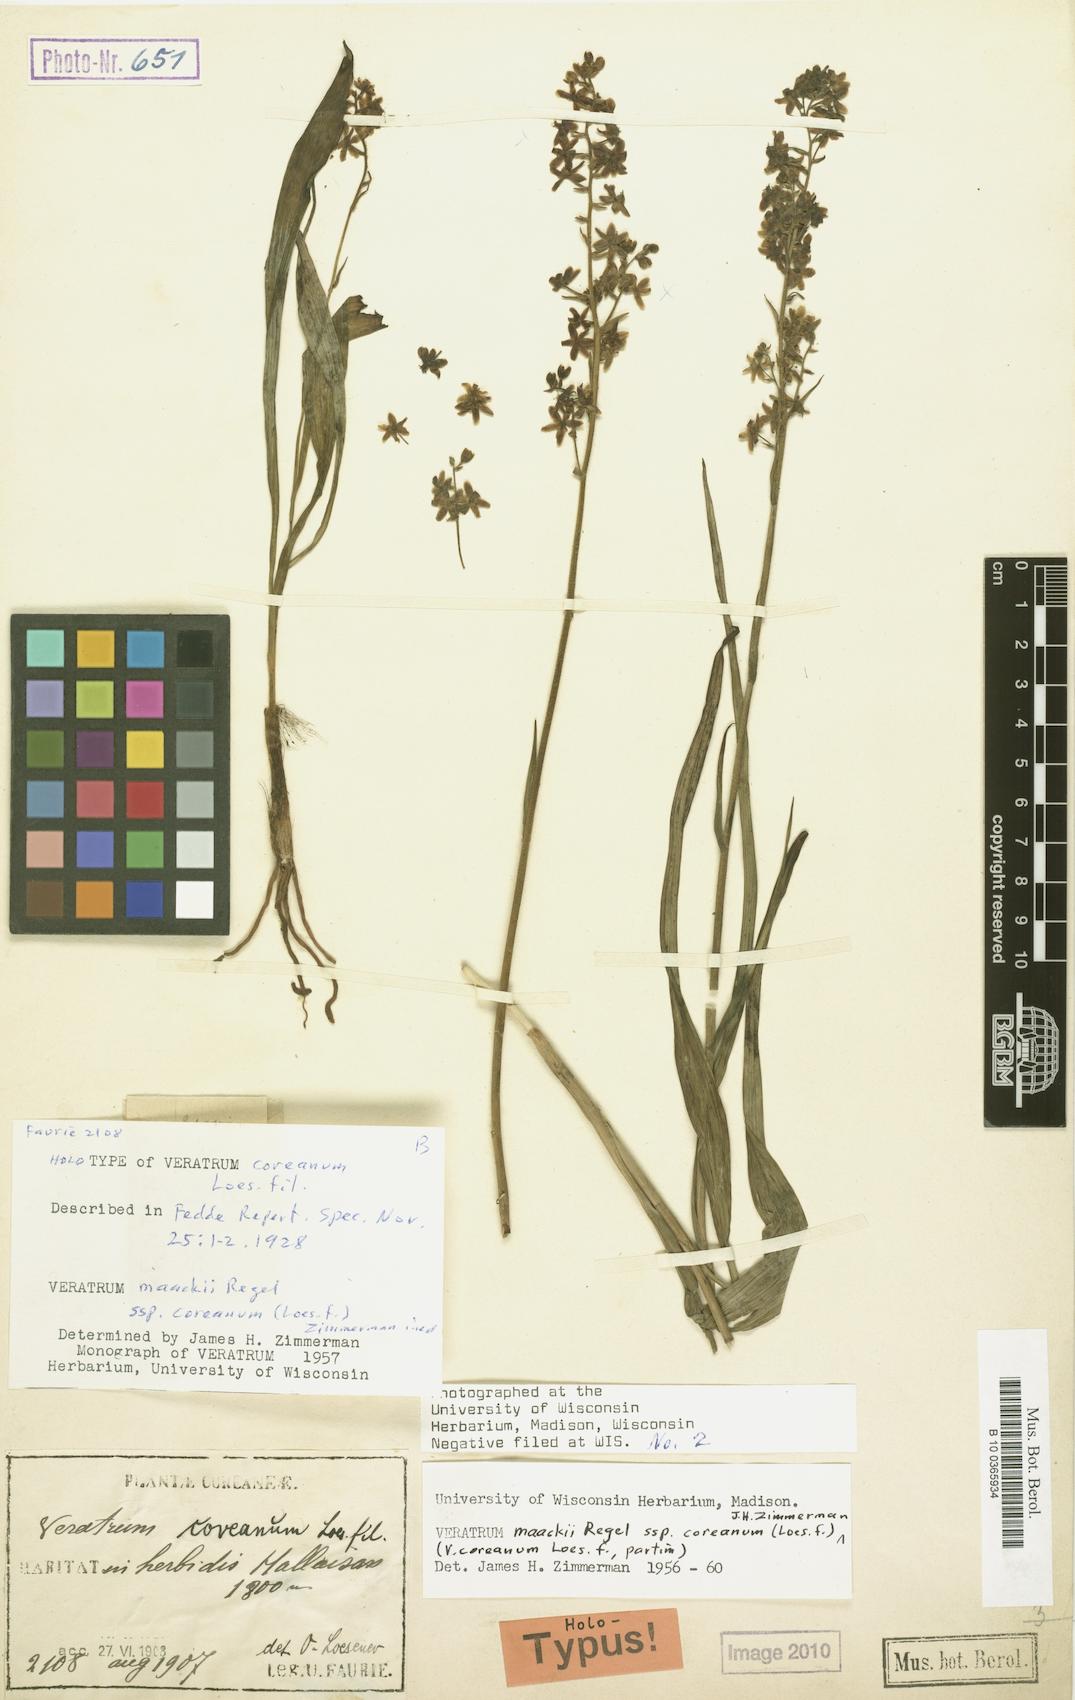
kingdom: Plantae
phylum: Tracheophyta
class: Liliopsida
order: Liliales
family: Melanthiaceae
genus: Veratrum
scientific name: Veratrum maackii
